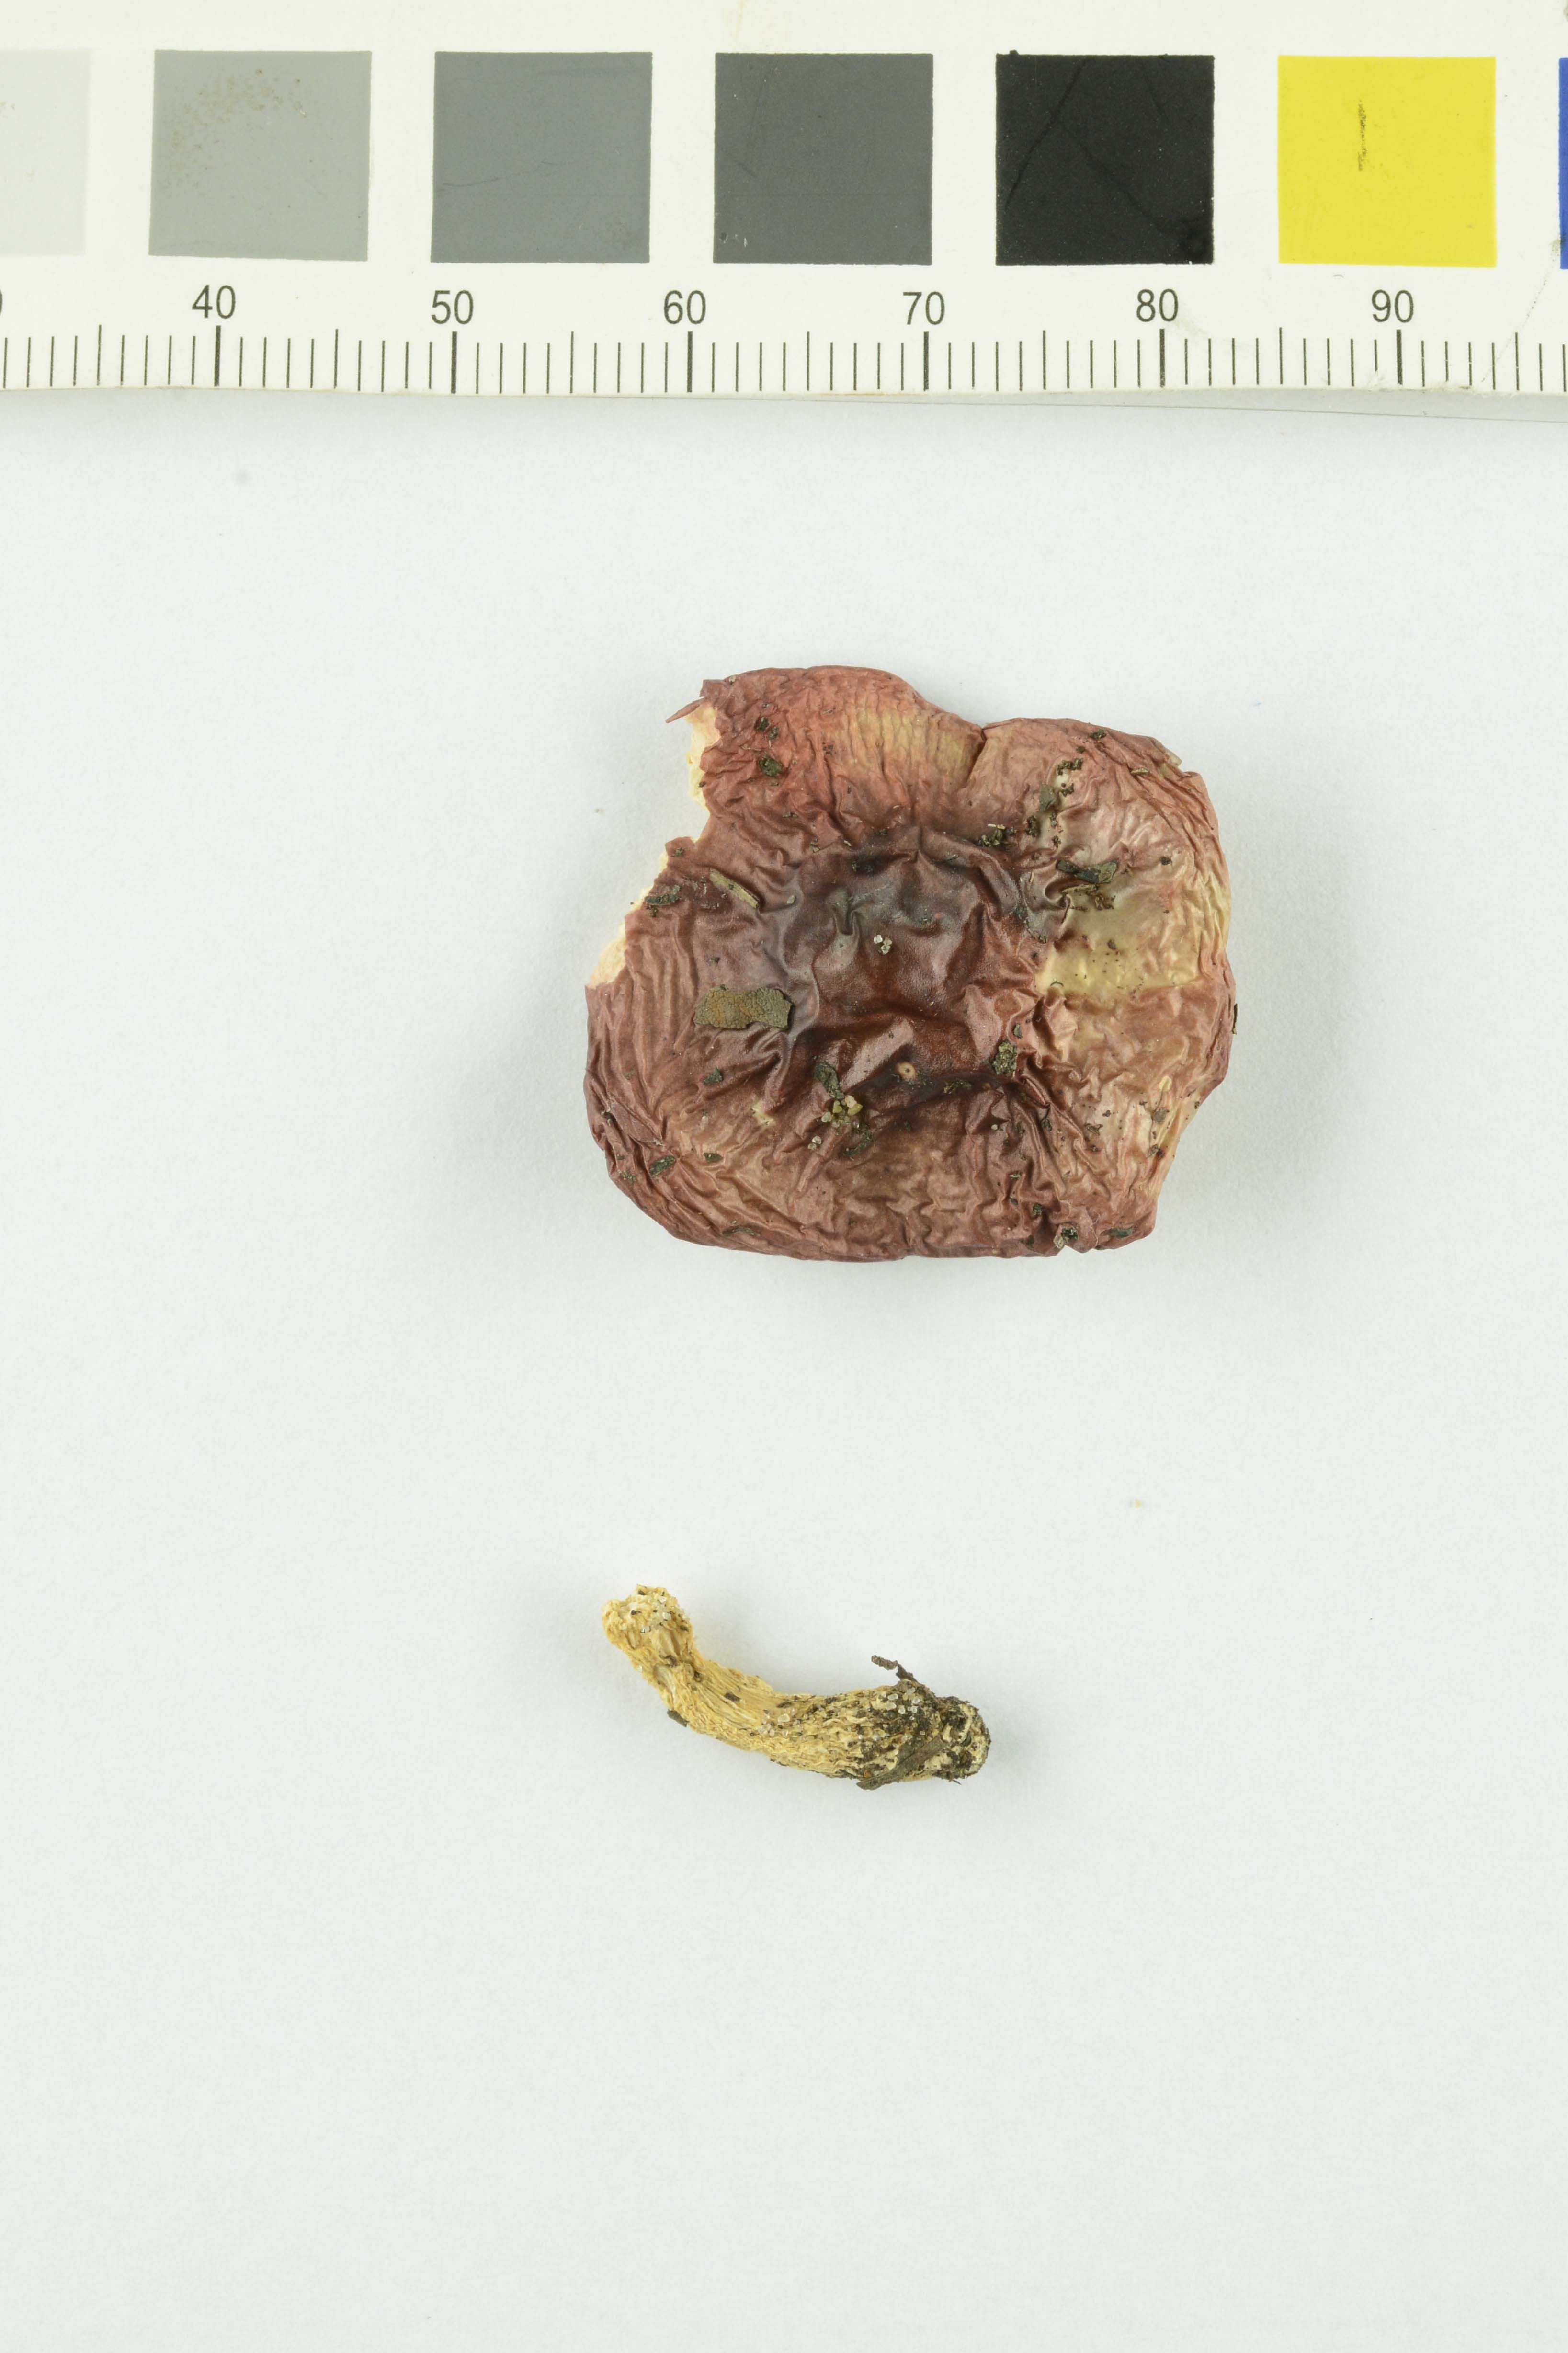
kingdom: Fungi
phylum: Basidiomycota
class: Agaricomycetes
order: Russulales
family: Russulaceae
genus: Russula
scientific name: Russula nana
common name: Alpine brittlegill
